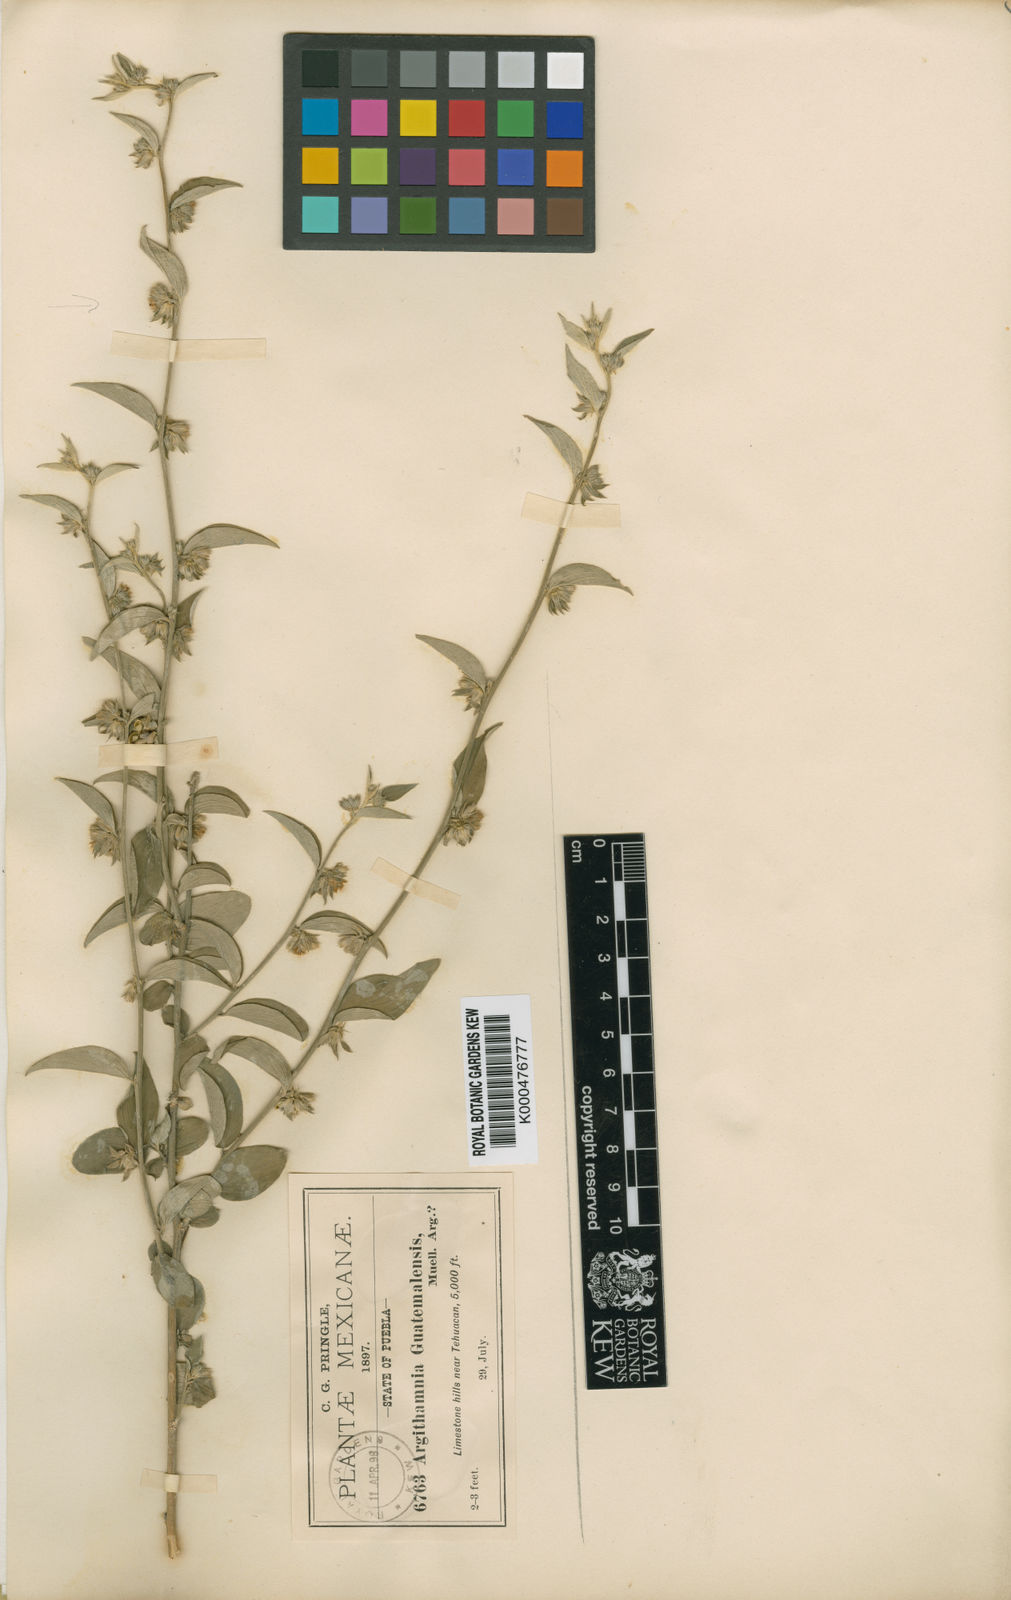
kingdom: Plantae
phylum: Tracheophyta
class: Magnoliopsida
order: Malpighiales
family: Euphorbiaceae
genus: Ditaxis
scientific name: Ditaxis
